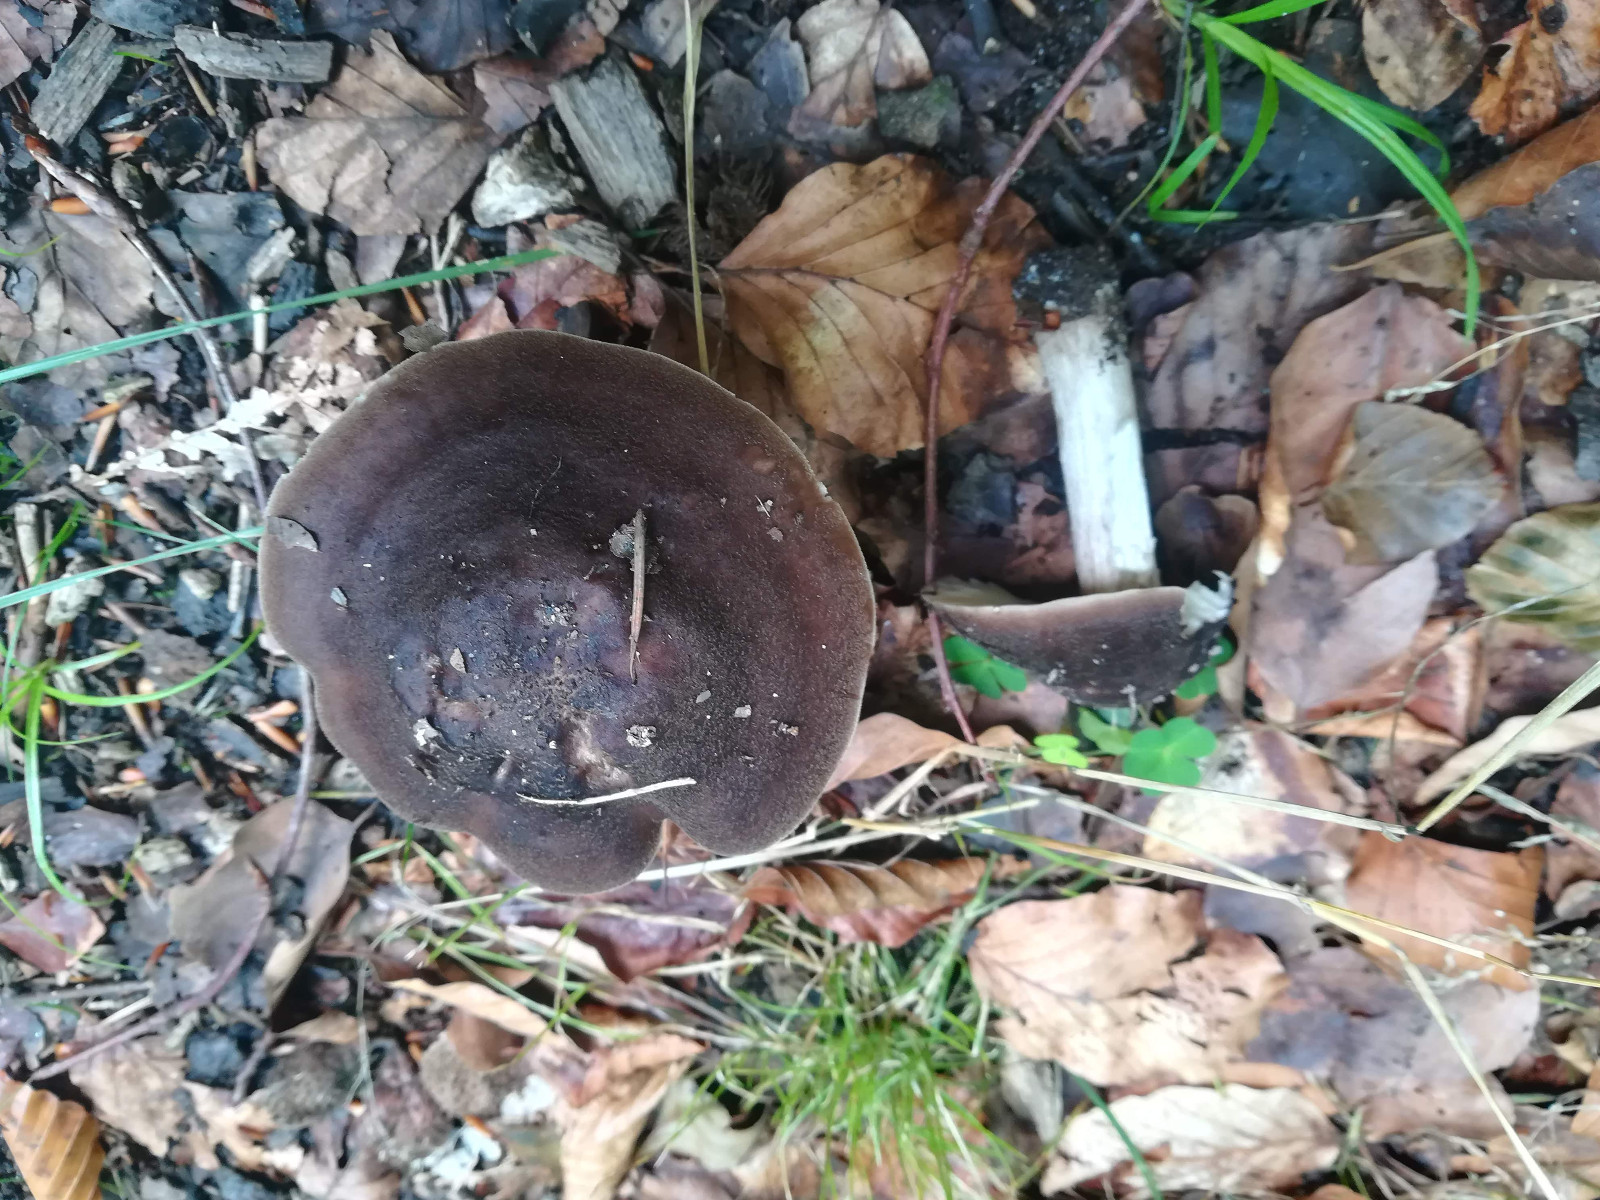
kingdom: Fungi
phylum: Basidiomycota
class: Agaricomycetes
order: Agaricales
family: Pluteaceae
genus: Pluteus
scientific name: Pluteus cervinus
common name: sodfarvet skærmhat
